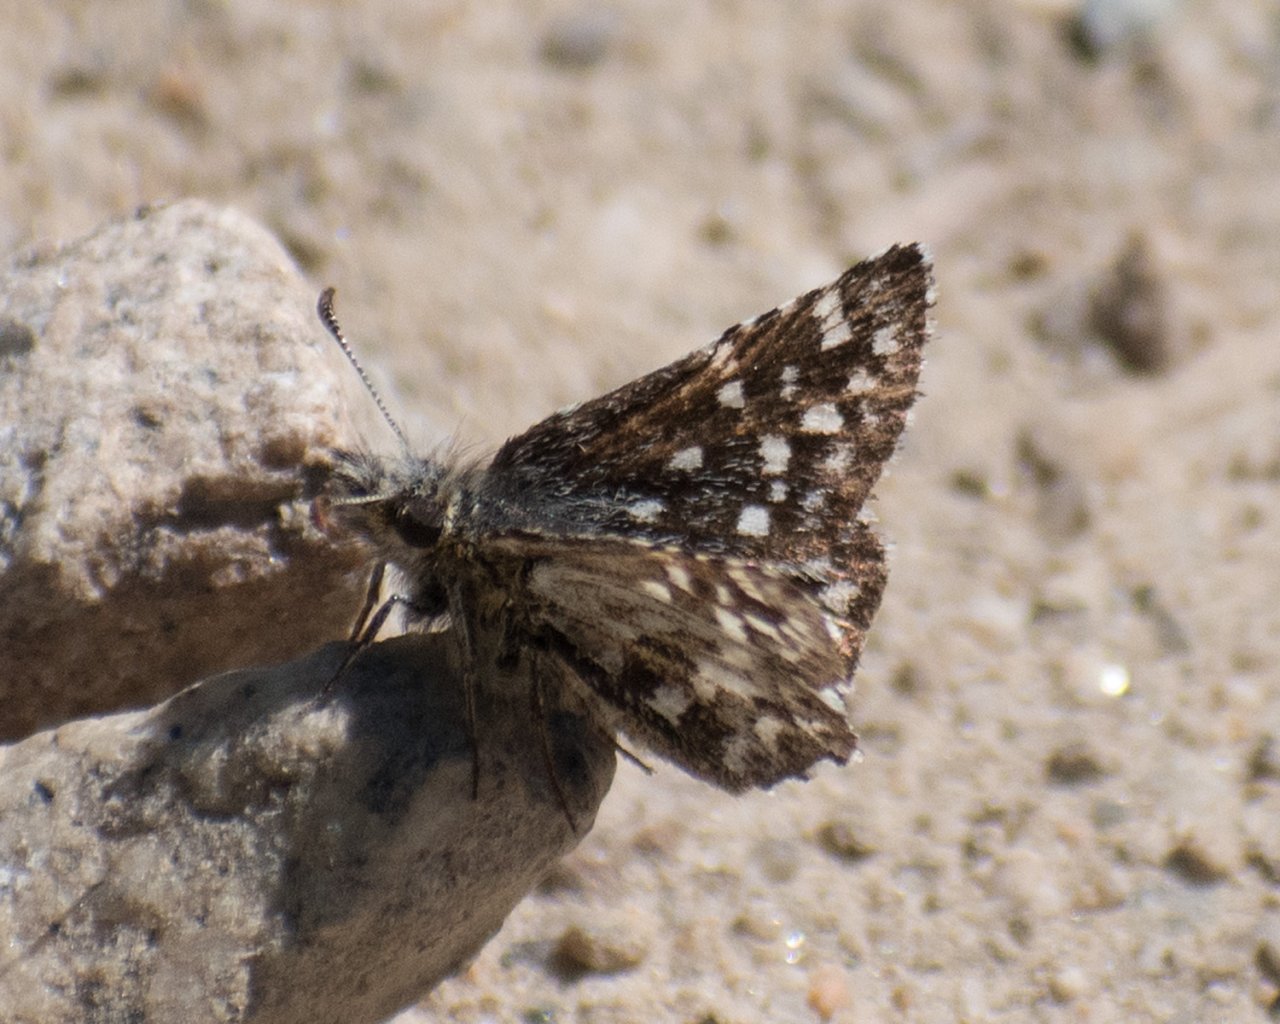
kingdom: Animalia
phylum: Arthropoda
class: Insecta
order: Lepidoptera
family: Hesperiidae
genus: Pyrgus
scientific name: Pyrgus ruralis
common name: Two-banded Checkered-Skipper
